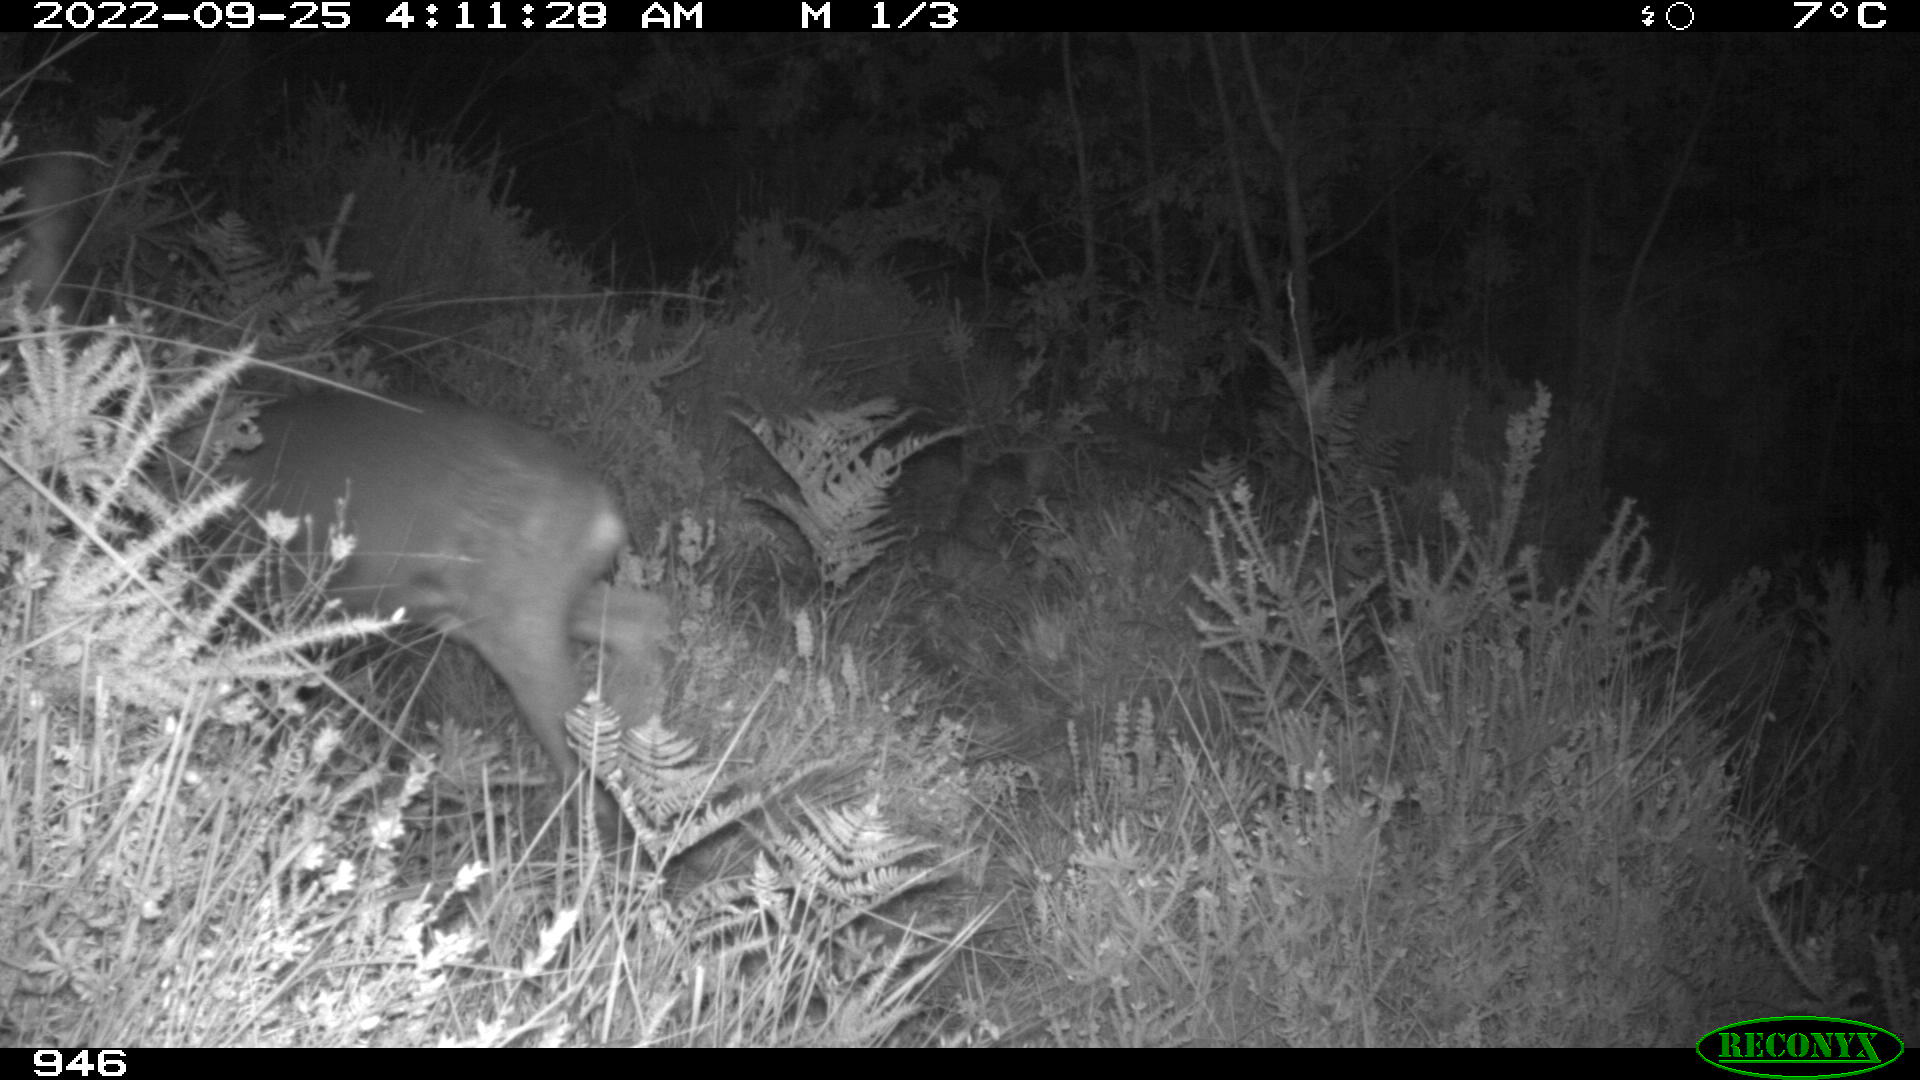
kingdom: Animalia
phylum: Chordata
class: Mammalia
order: Artiodactyla
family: Cervidae
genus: Capreolus
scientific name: Capreolus capreolus
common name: Western roe deer
